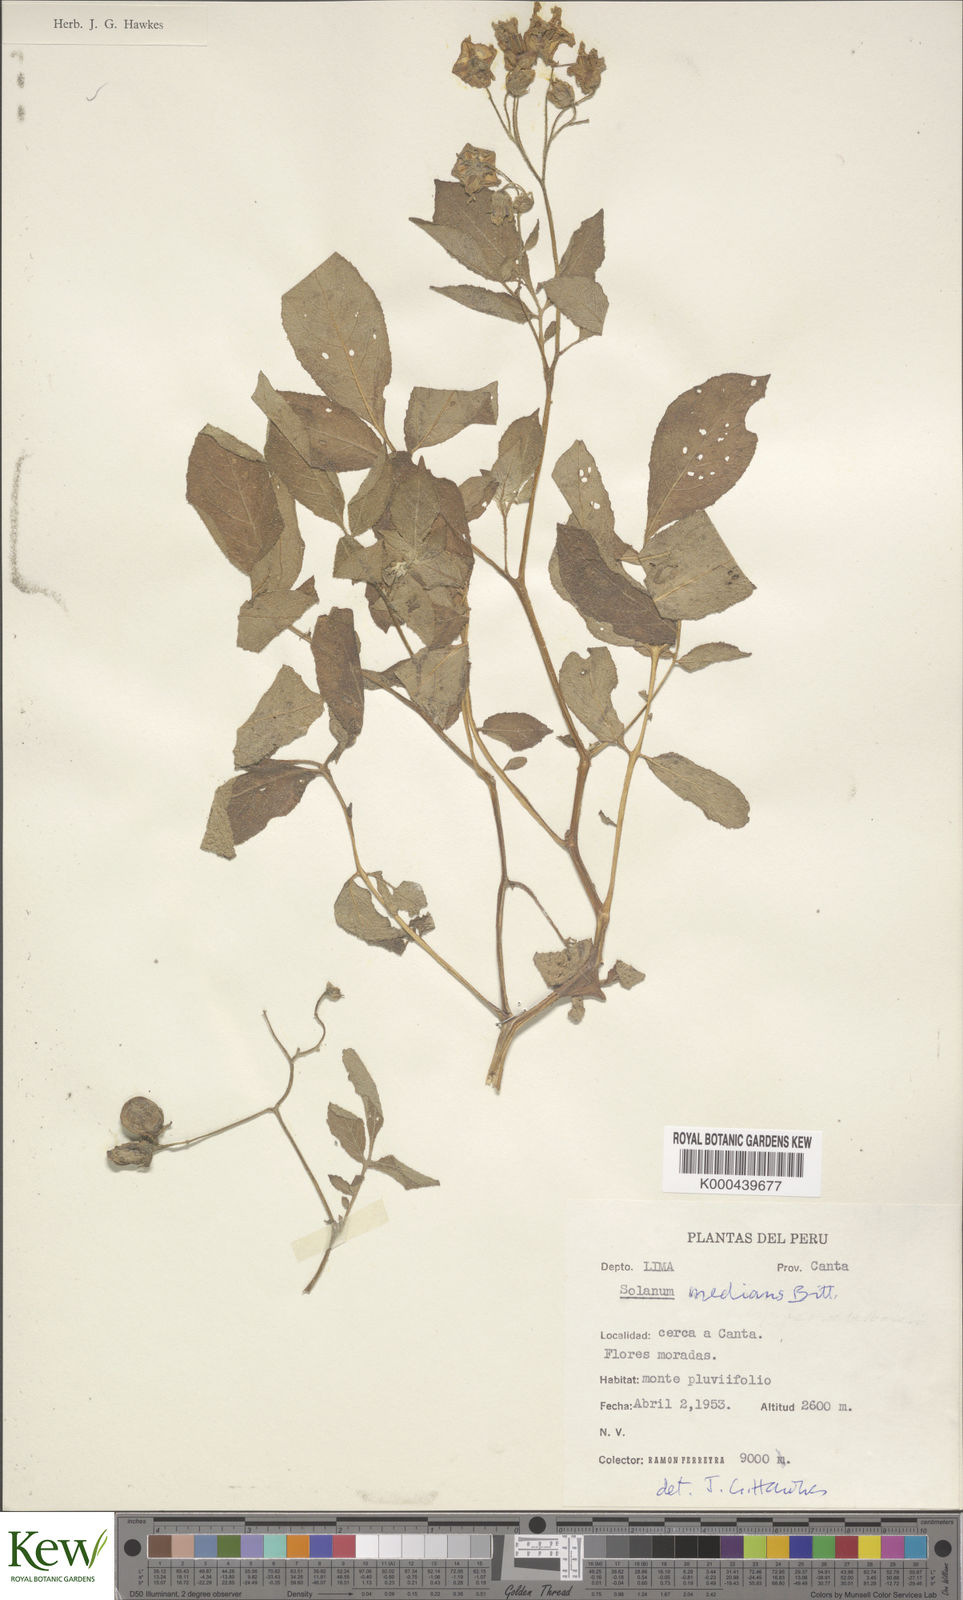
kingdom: Plantae
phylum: Tracheophyta
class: Magnoliopsida
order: Solanales
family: Solanaceae
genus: Solanum
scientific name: Solanum medians
